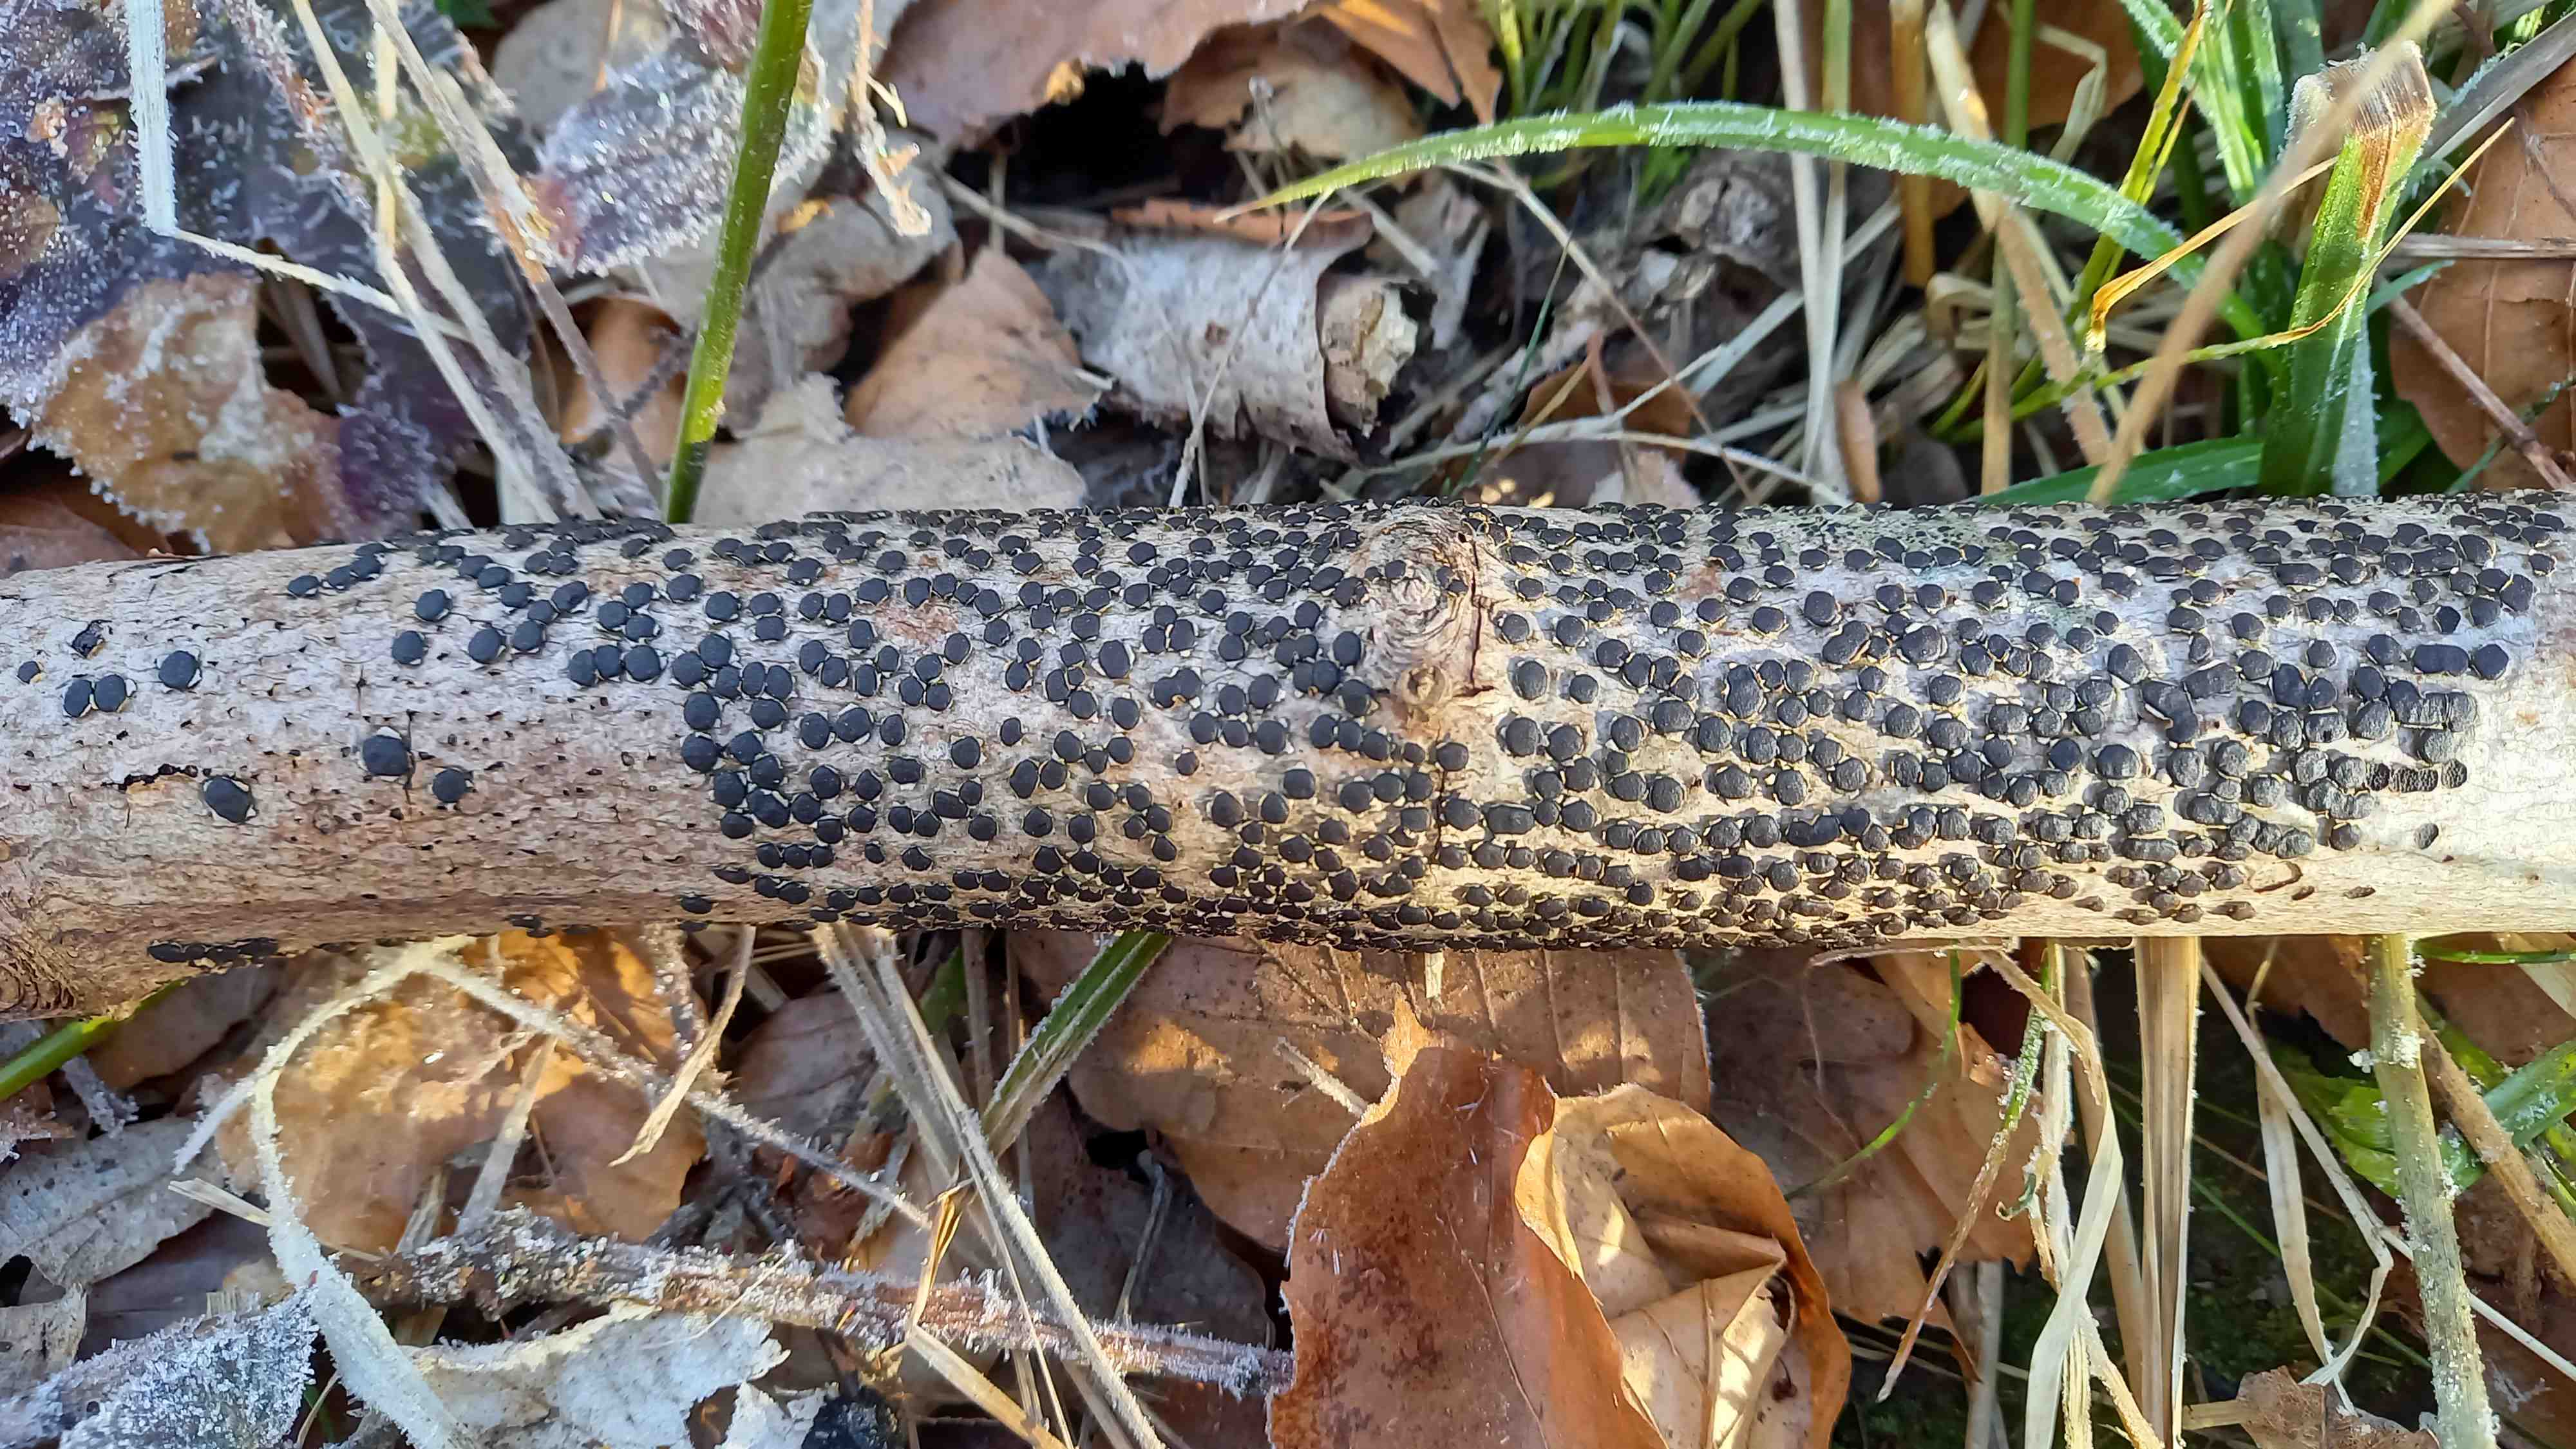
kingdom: Fungi
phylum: Ascomycota
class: Sordariomycetes
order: Xylariales
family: Diatrypaceae
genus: Diatrype
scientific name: Diatrype disciformis
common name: kant-kulskorpe
